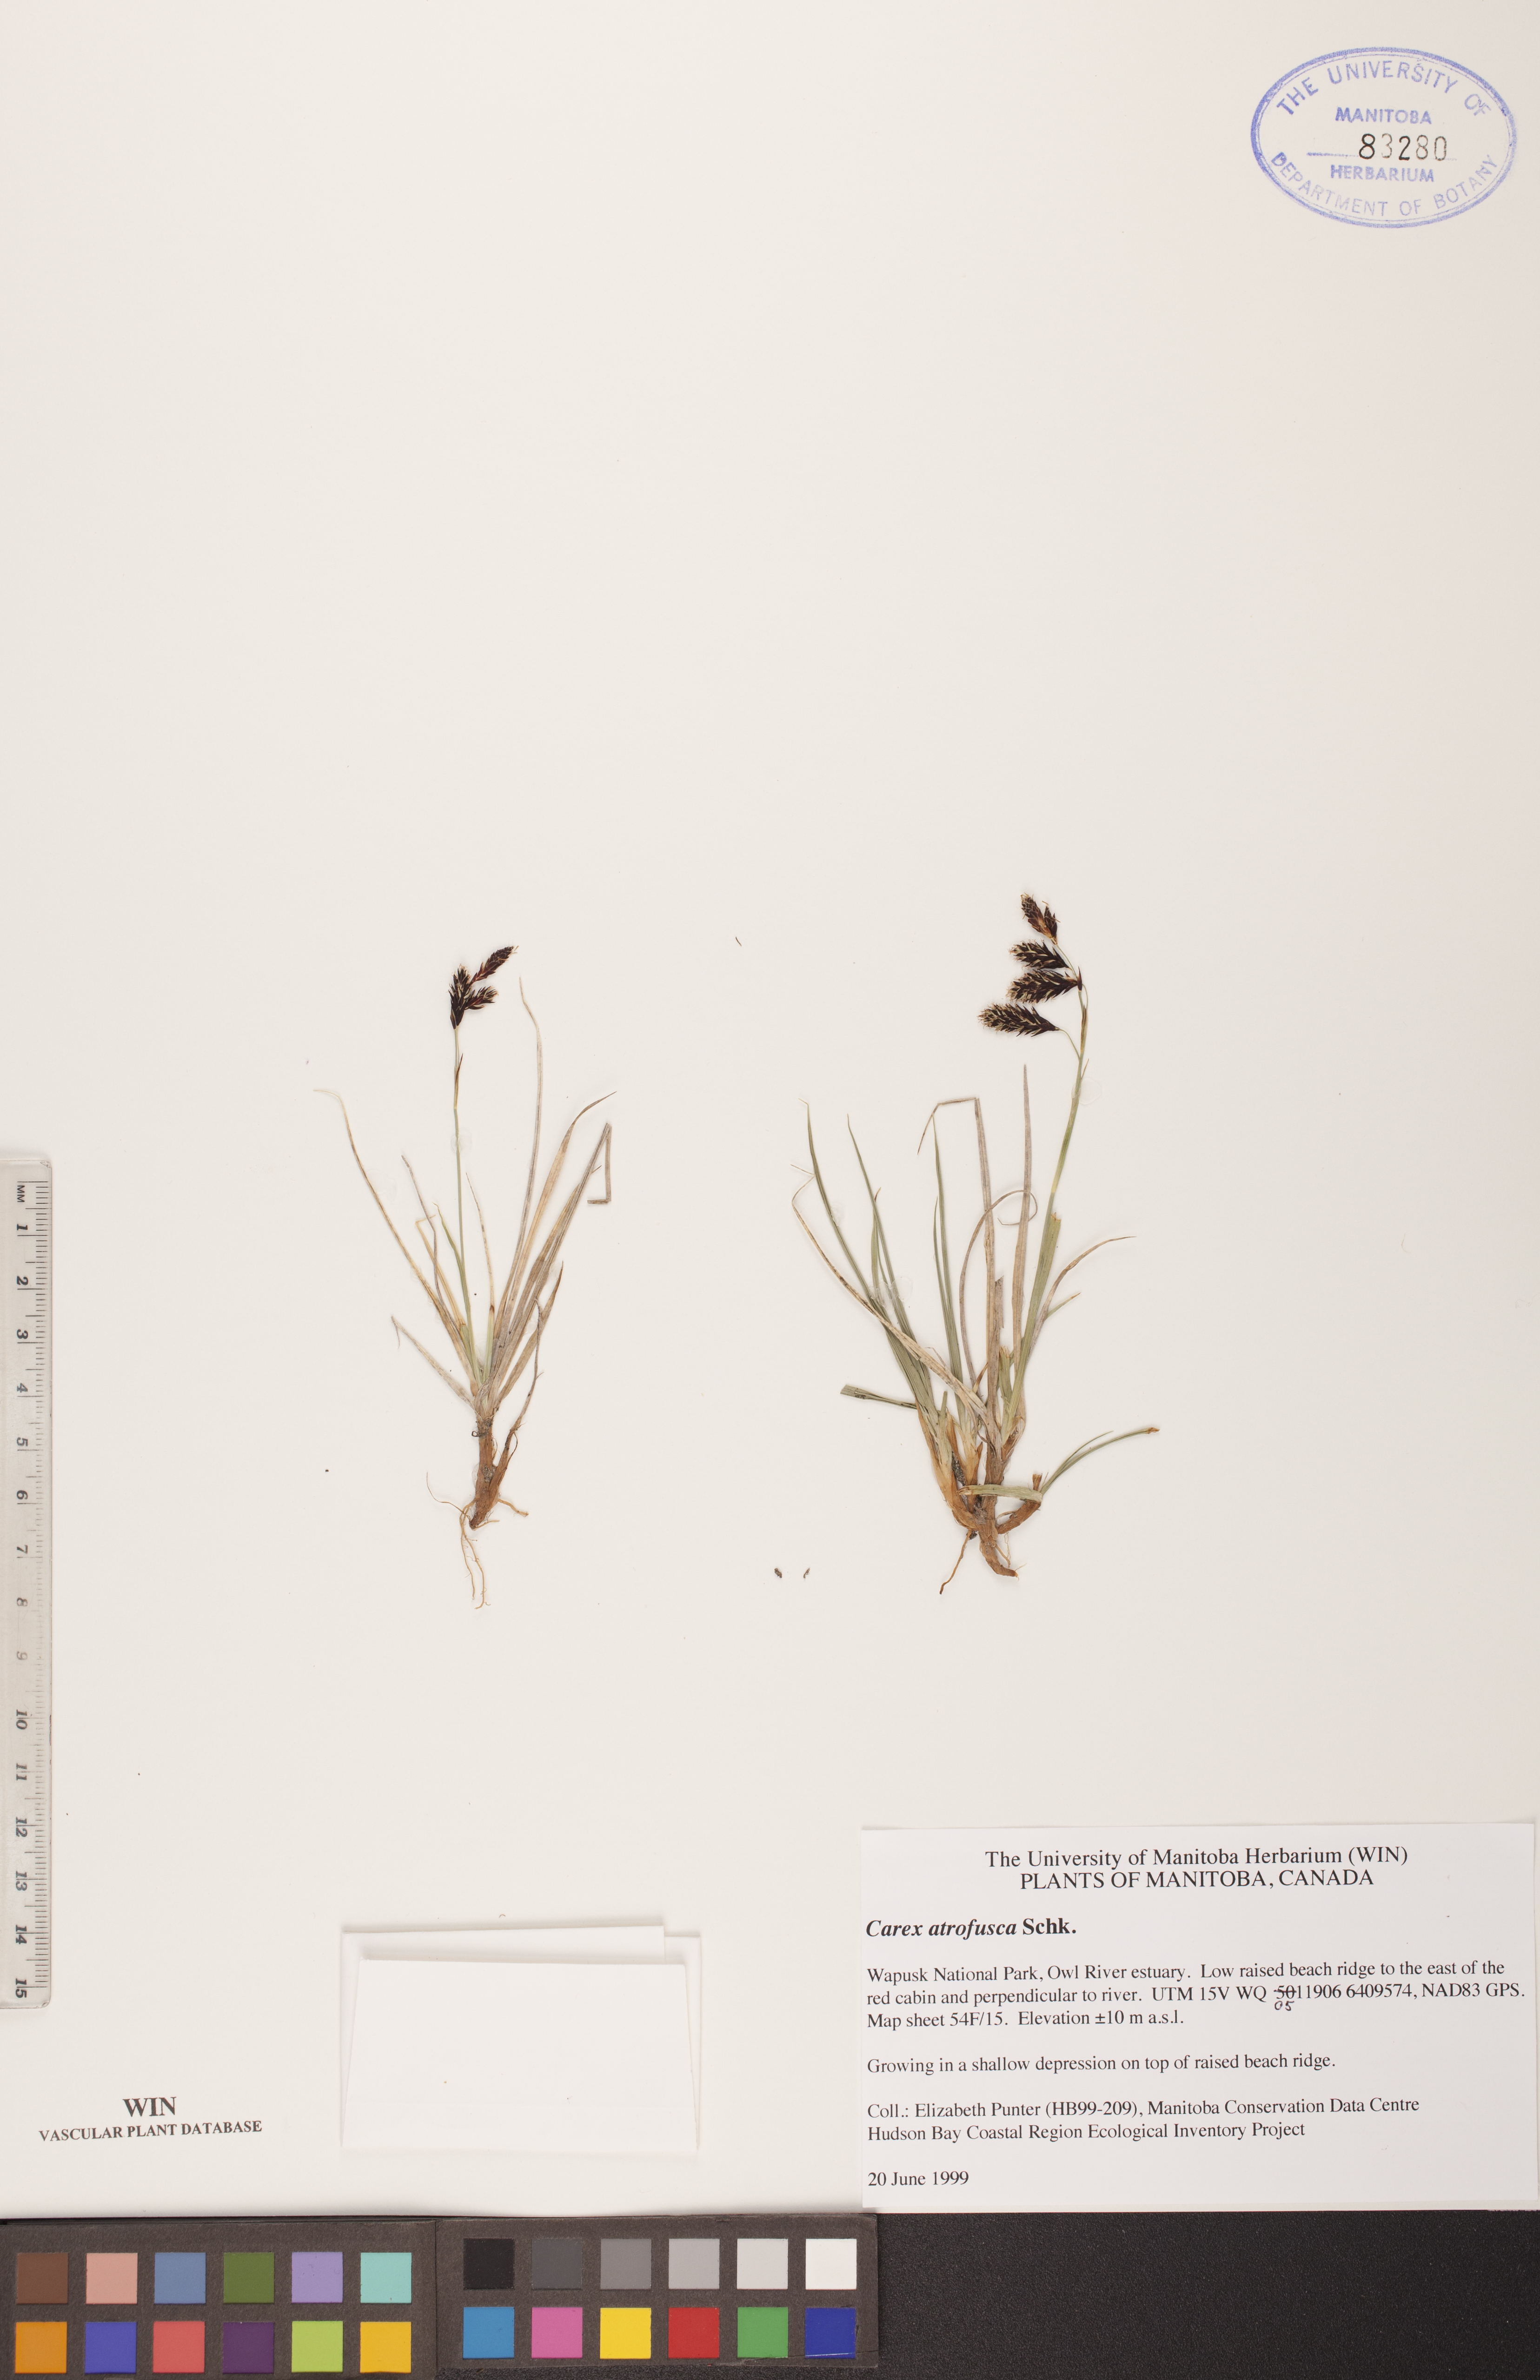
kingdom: Plantae
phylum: Tracheophyta
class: Liliopsida
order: Poales
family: Cyperaceae
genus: Carex
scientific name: Carex pichinchensis
